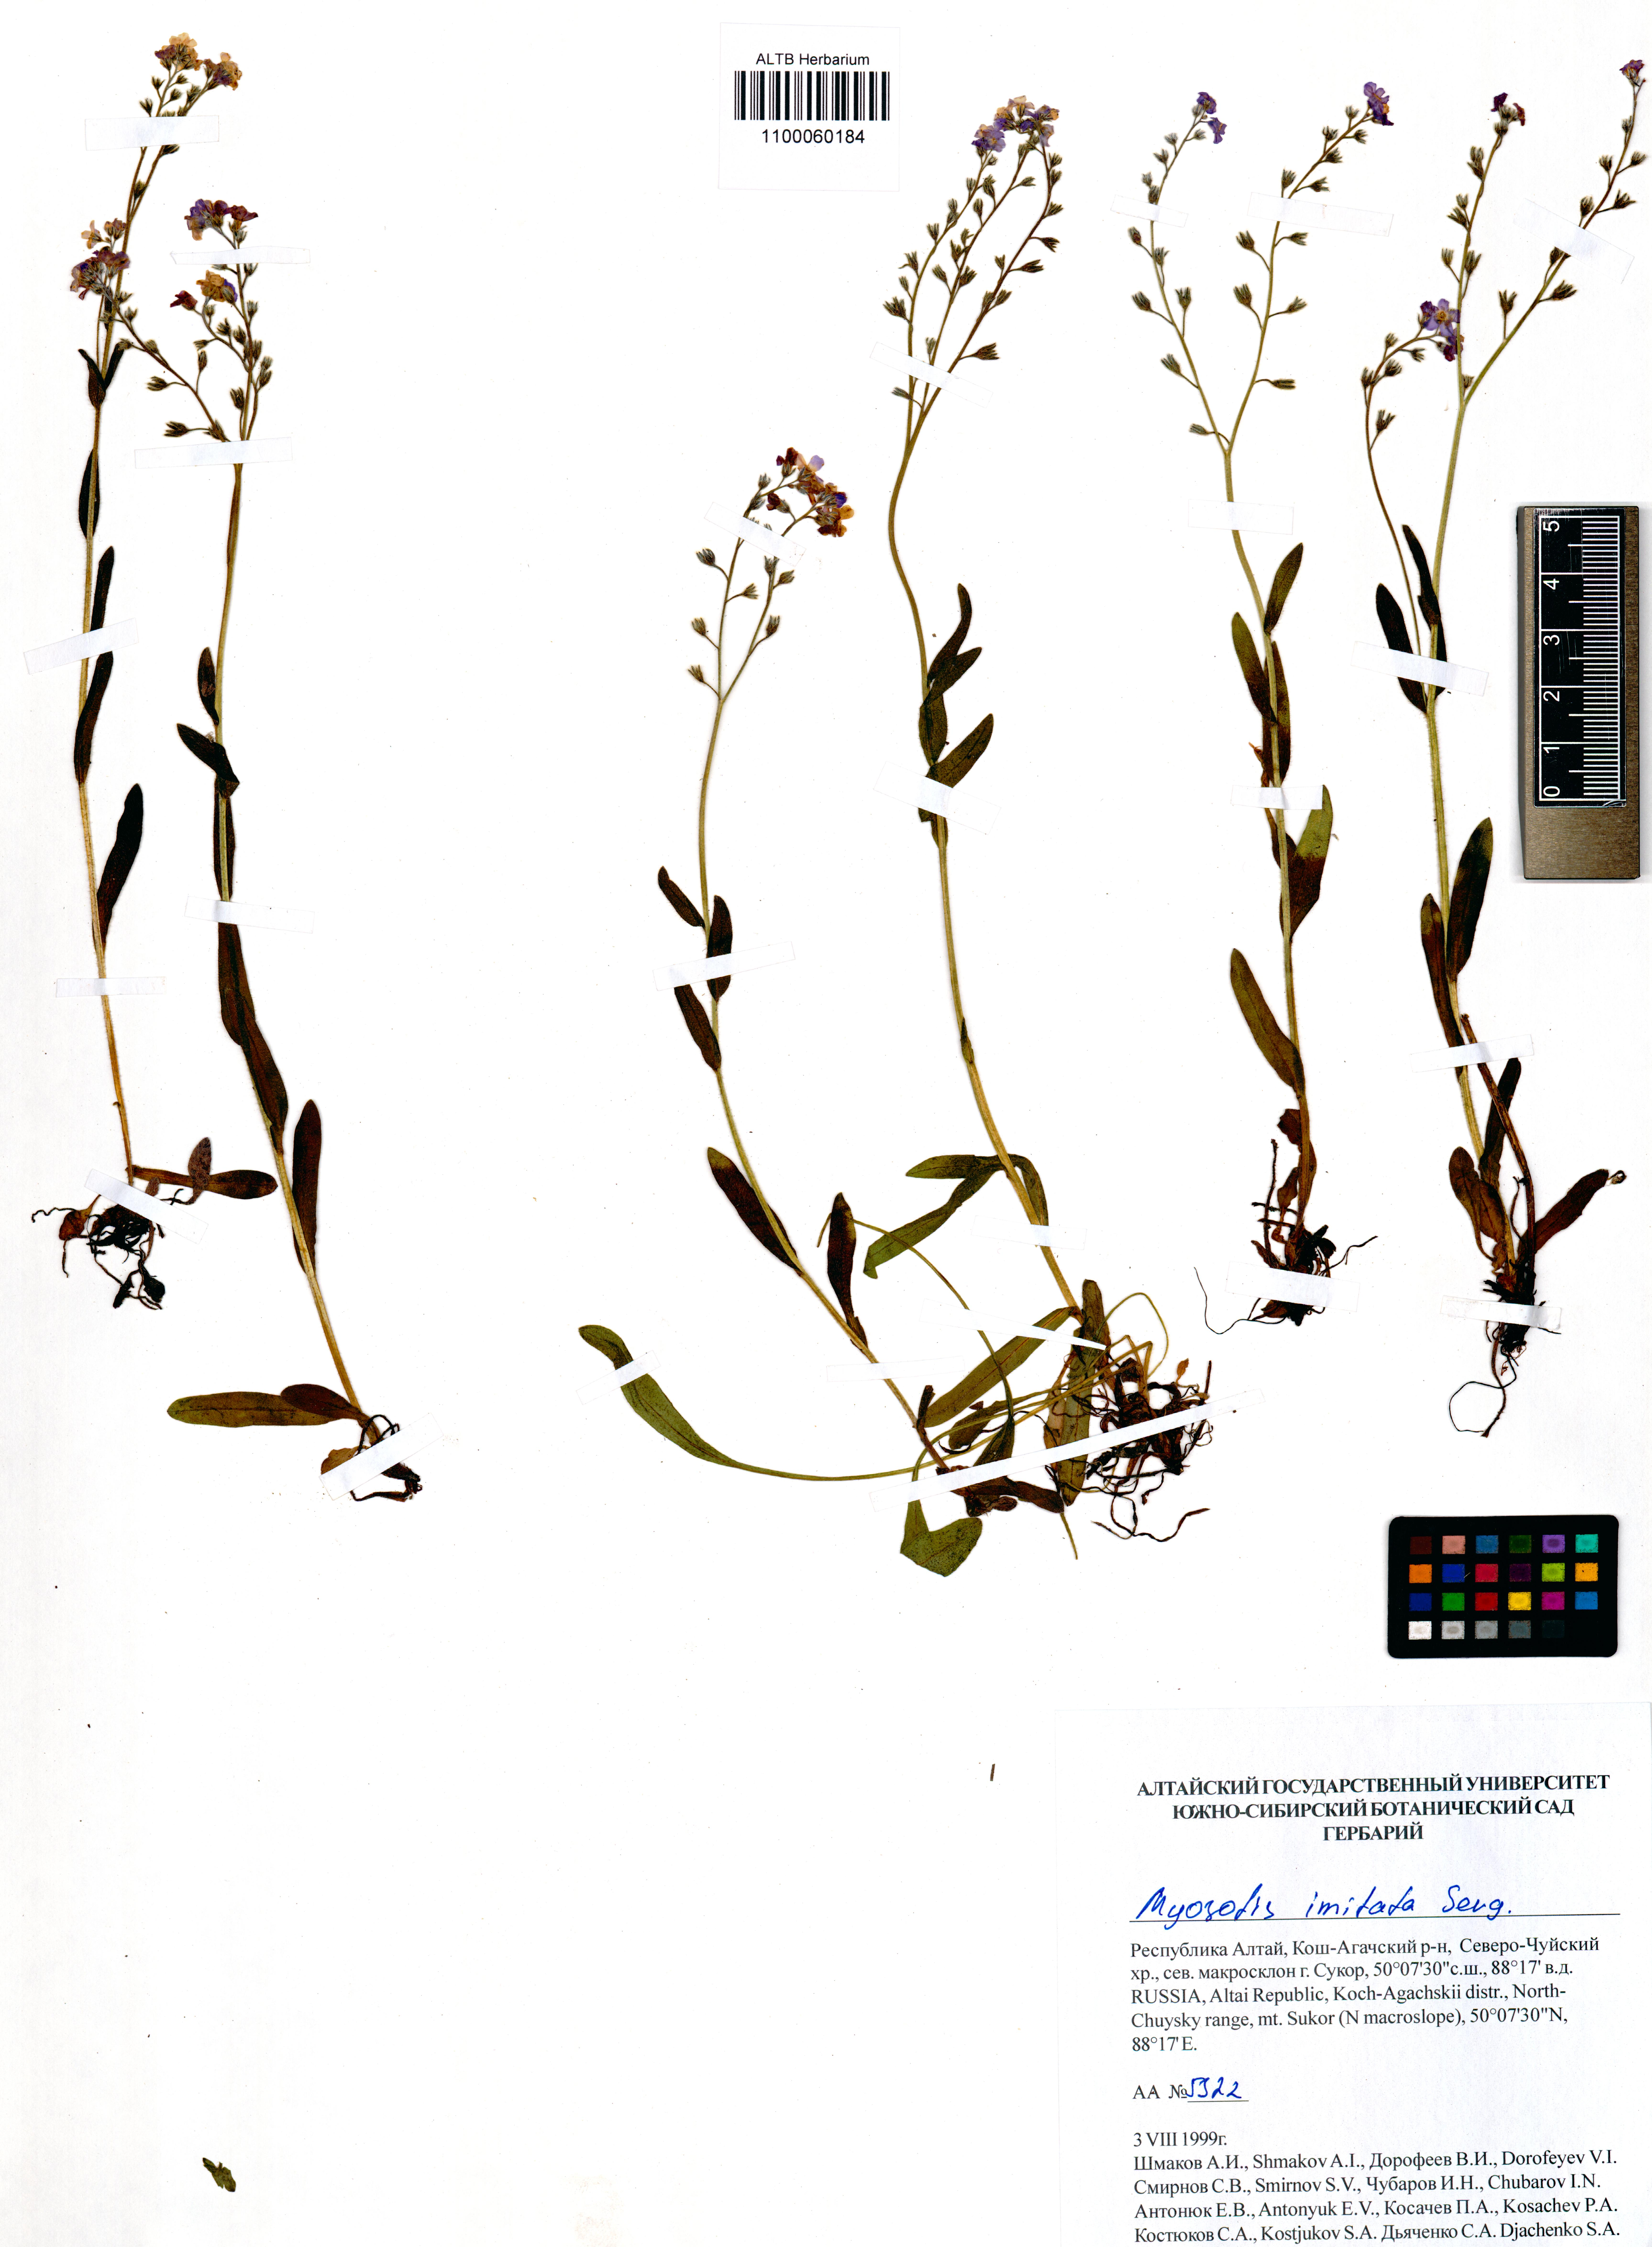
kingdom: Plantae
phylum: Tracheophyta
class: Magnoliopsida
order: Boraginales
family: Boraginaceae
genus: Myosotis
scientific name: Myosotis imitata
